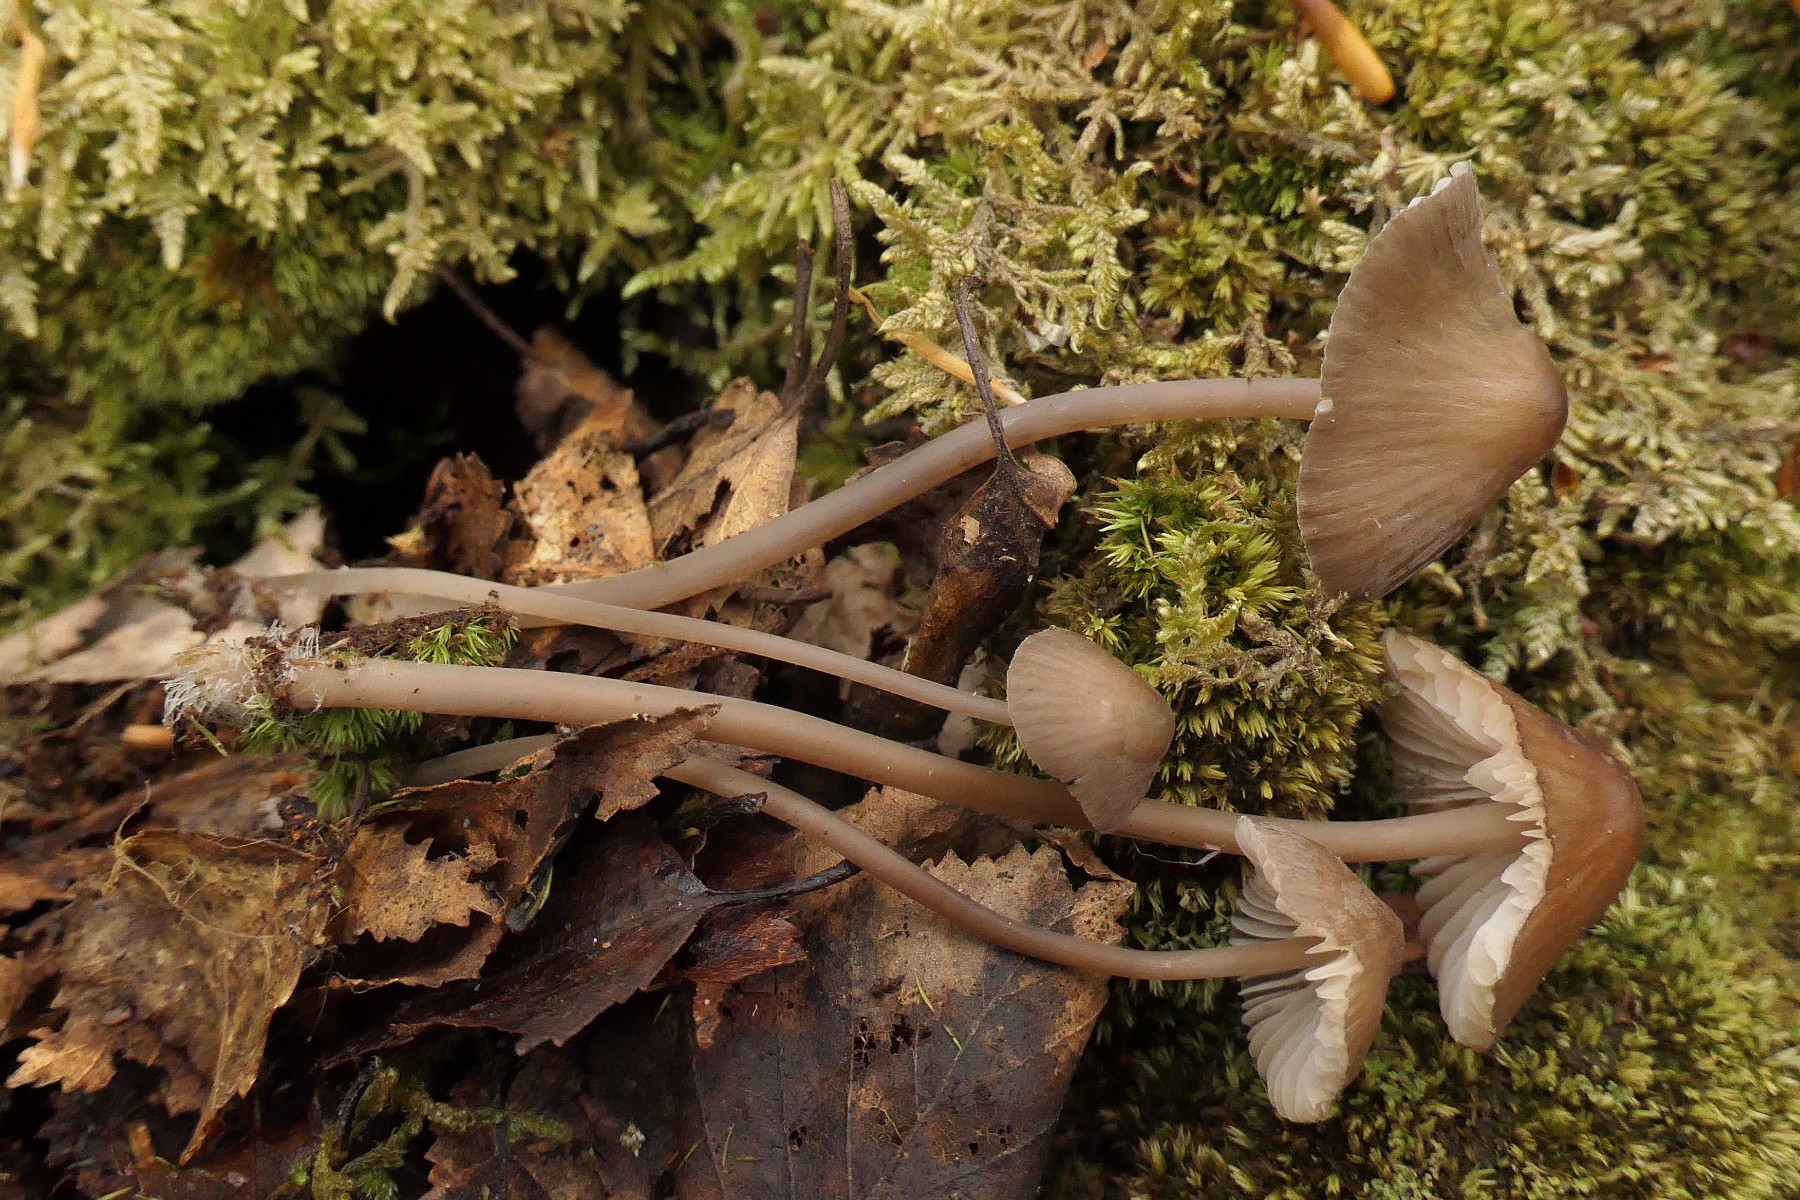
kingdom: Fungi
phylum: Basidiomycota
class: Agaricomycetes
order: Agaricales
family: Mycenaceae
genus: Mycena
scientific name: Mycena silvae-nigrae
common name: tidlig huesvamp
